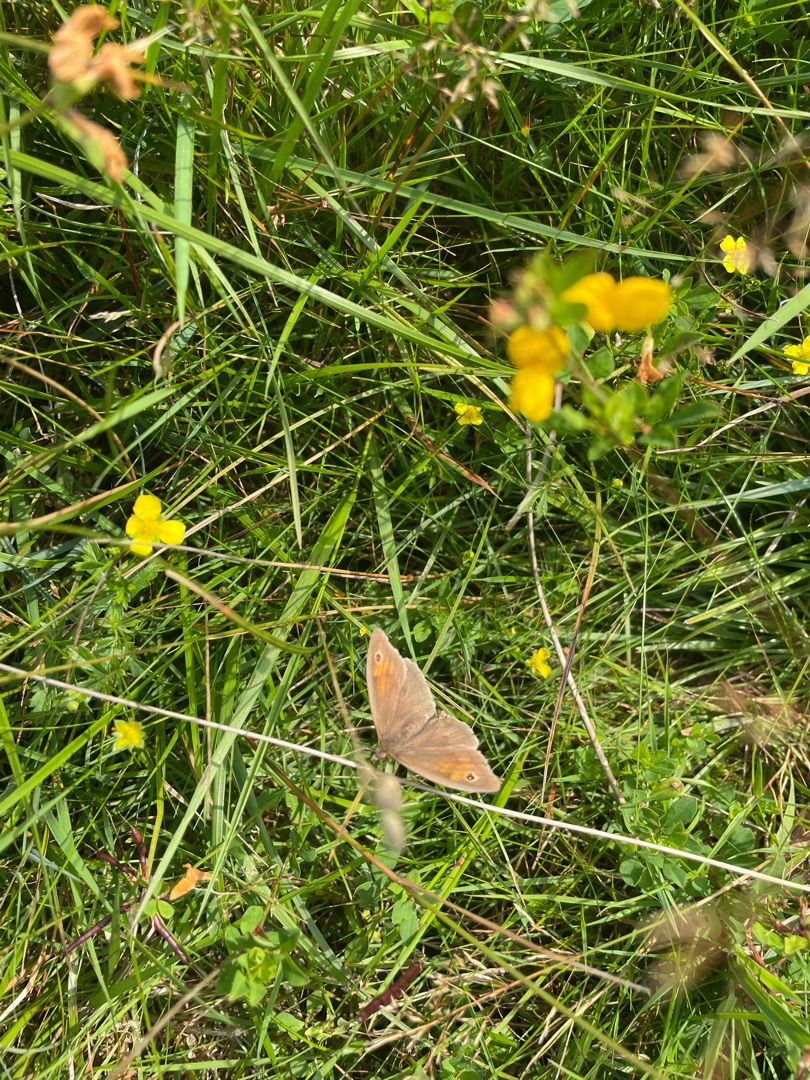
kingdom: Animalia
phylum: Arthropoda
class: Insecta
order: Lepidoptera
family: Nymphalidae
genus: Maniola
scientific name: Maniola jurtina
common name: Græsrandøje
